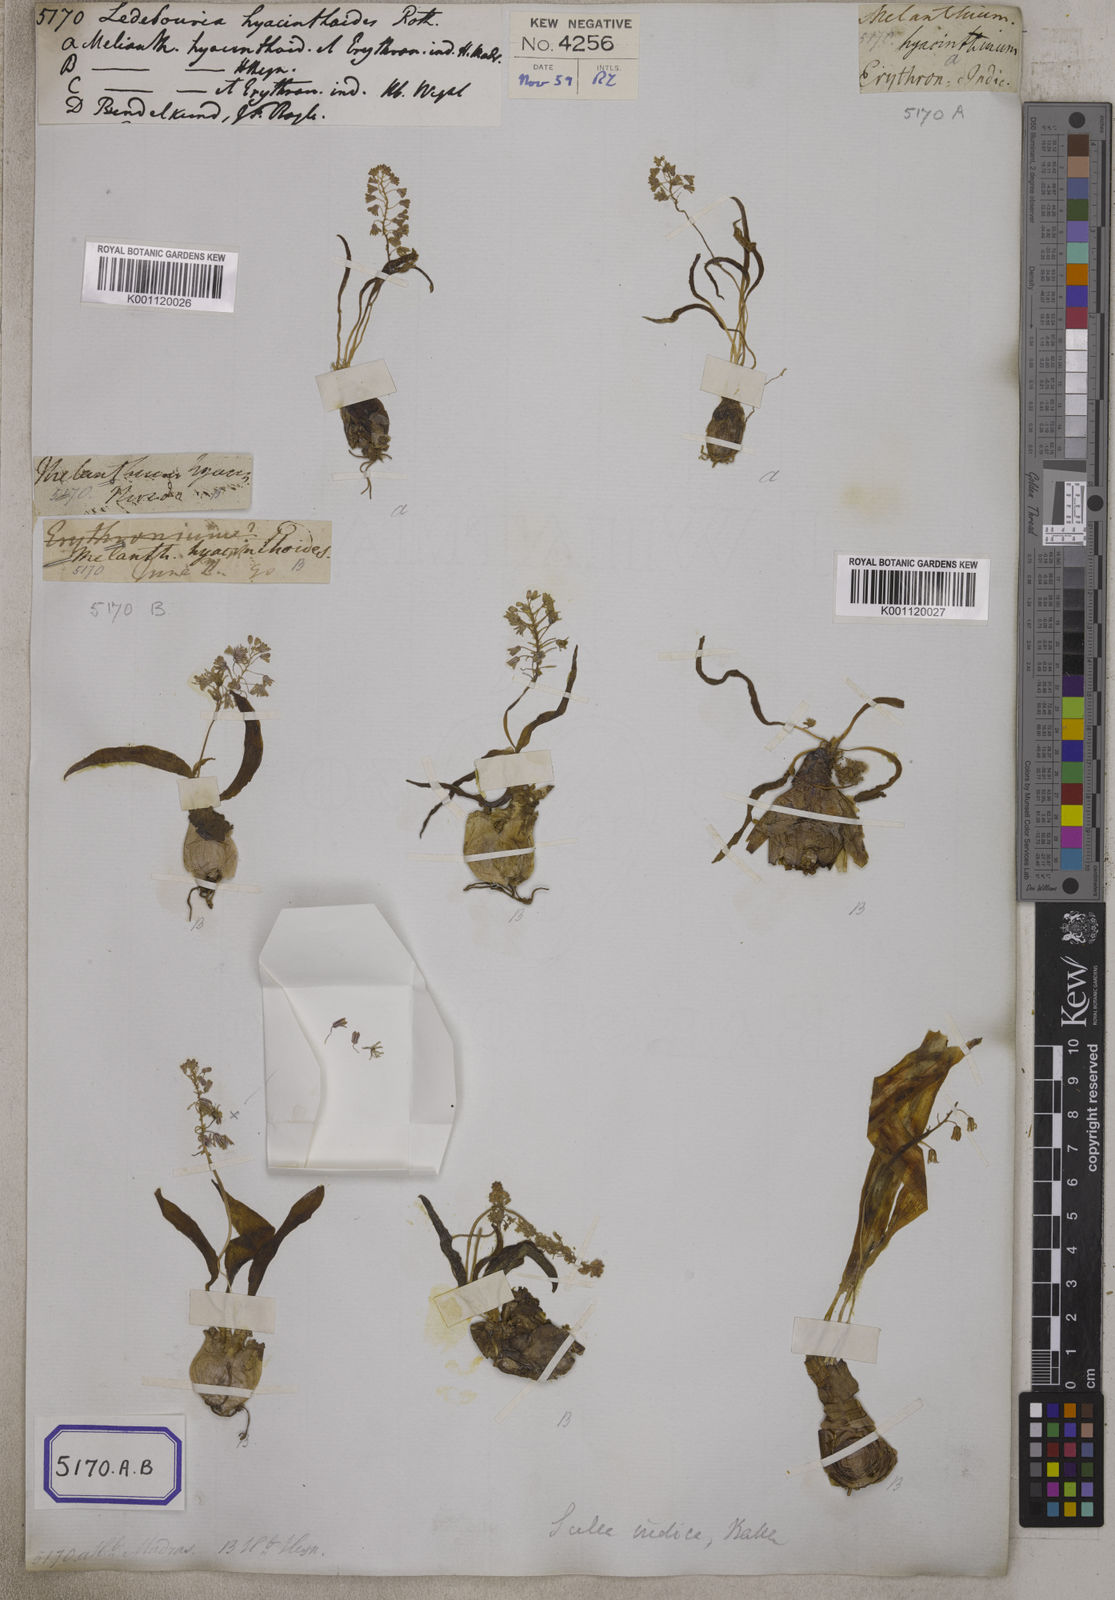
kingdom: Plantae
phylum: Tracheophyta
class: Liliopsida
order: Asparagales
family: Asparagaceae
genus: Ledebouria
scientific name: Ledebouria
